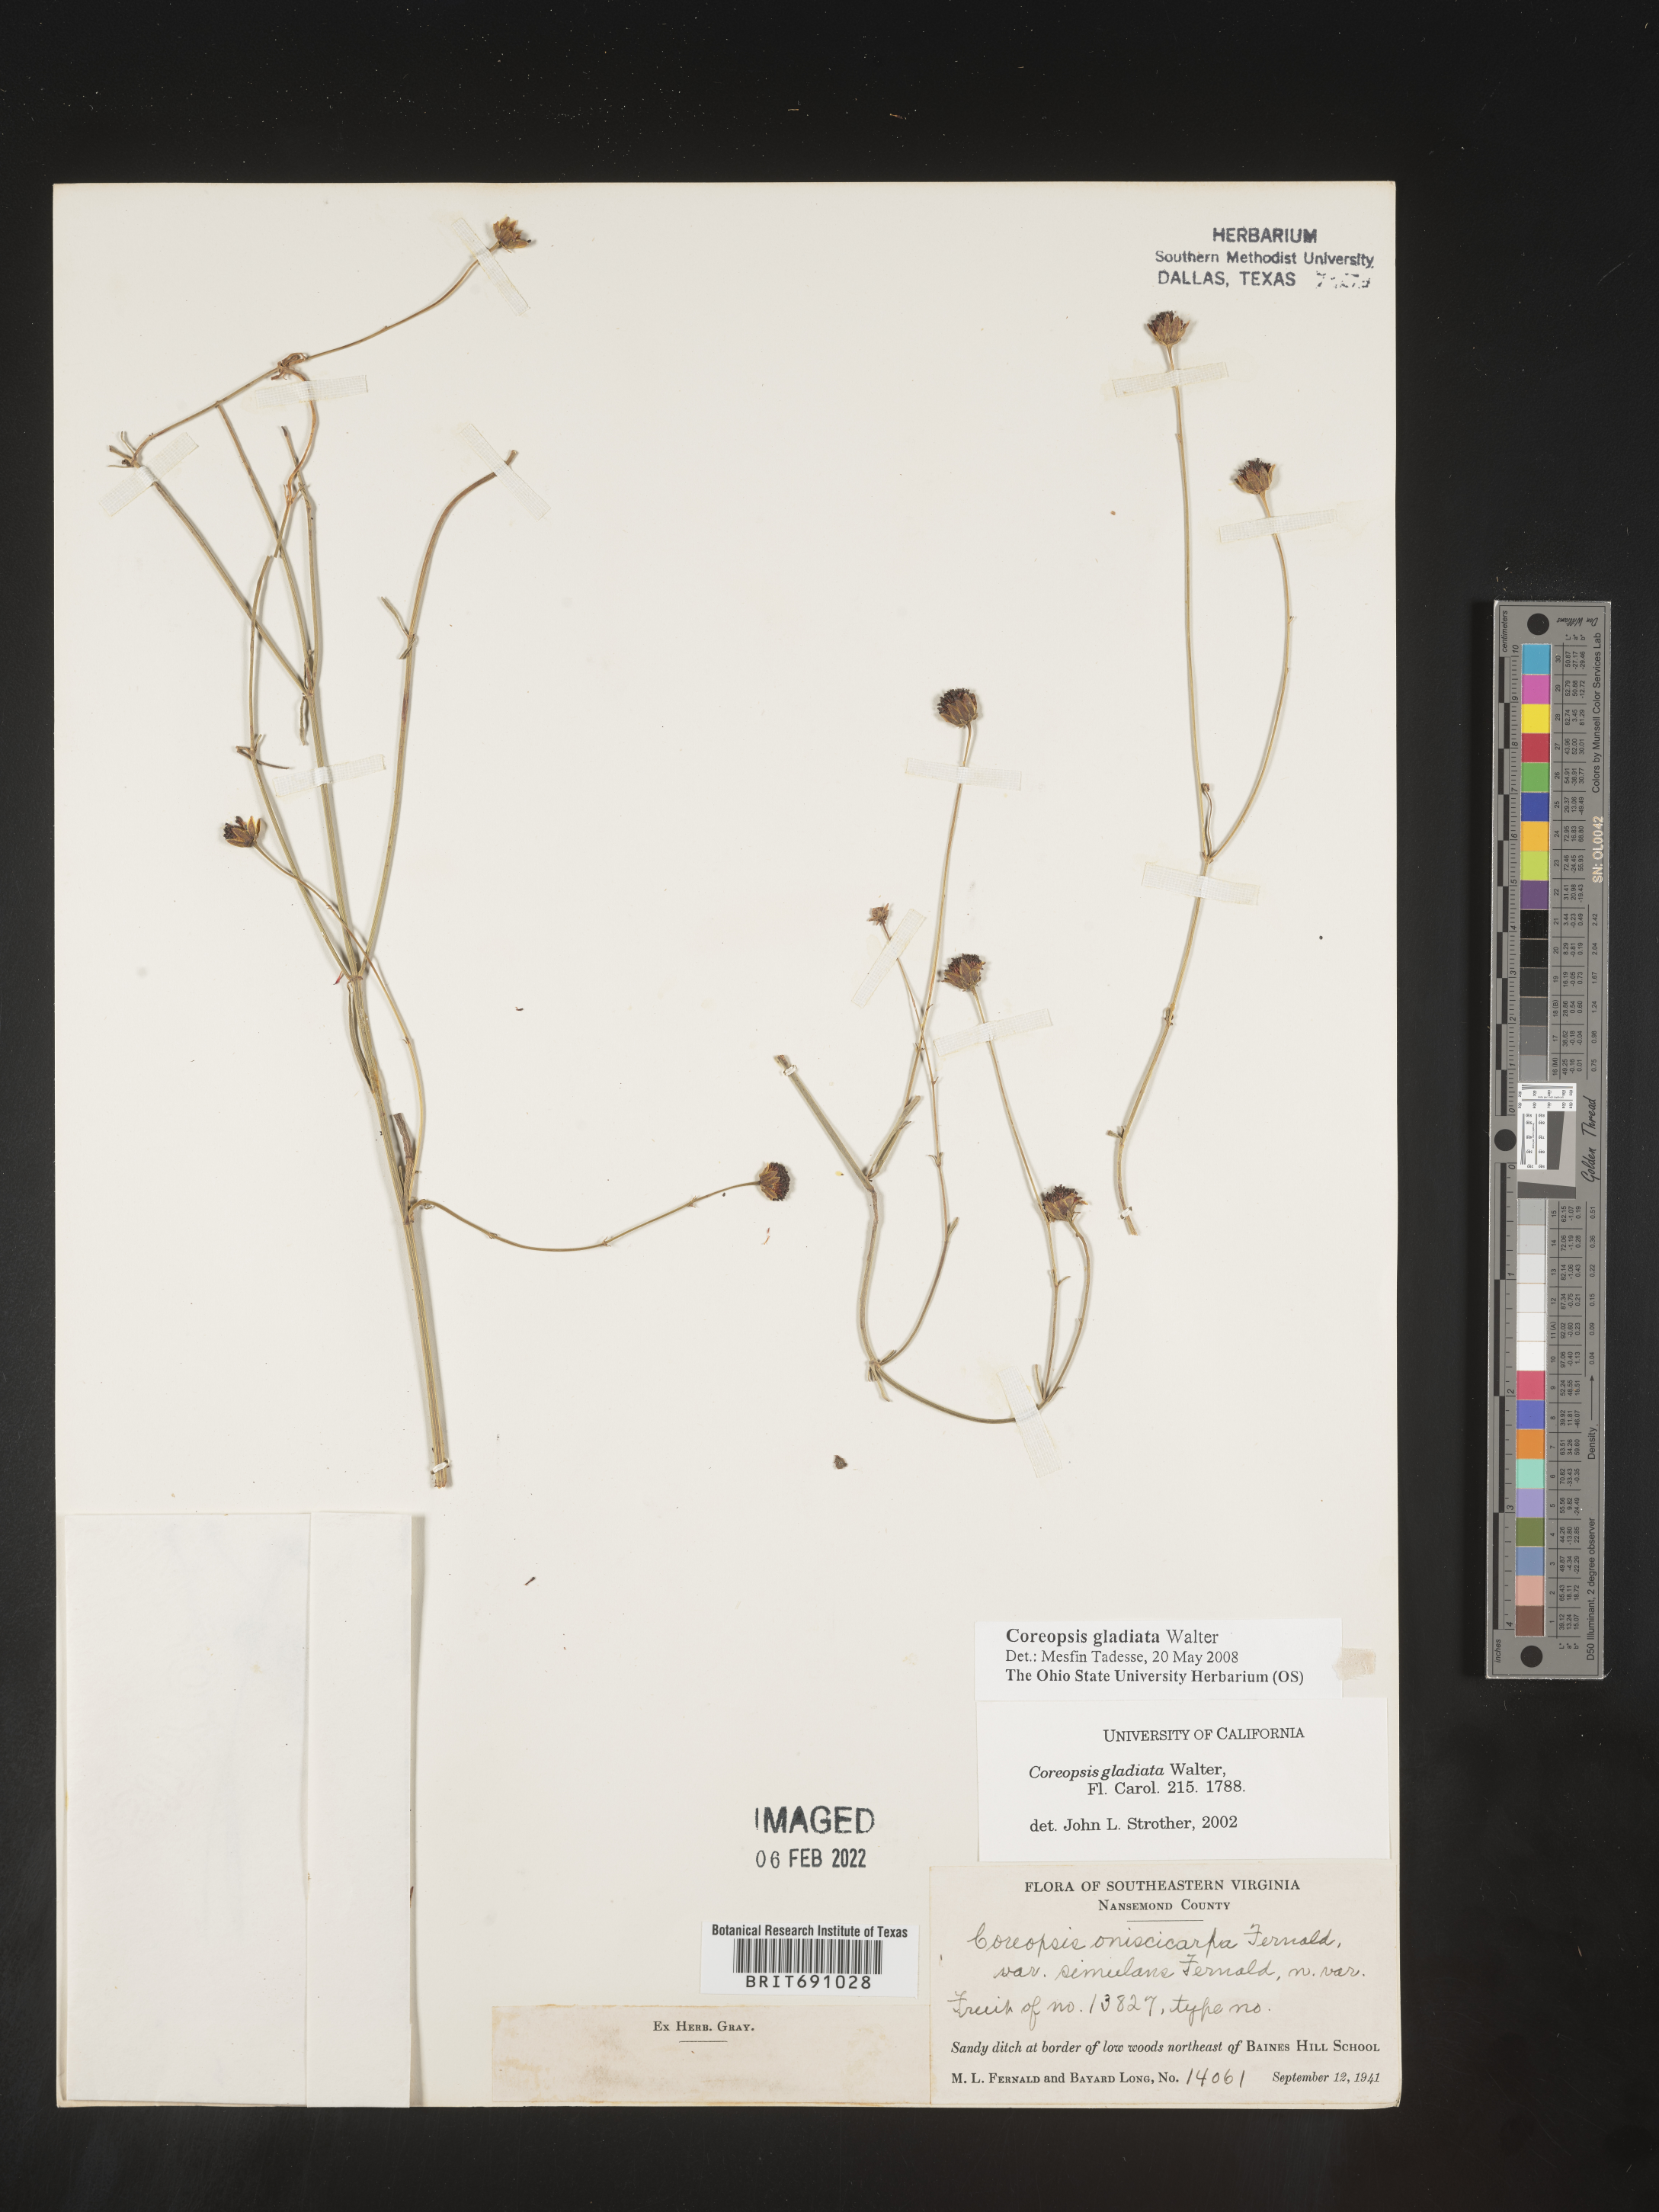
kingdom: Plantae
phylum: Tracheophyta
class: Magnoliopsida
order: Asterales
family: Asteraceae
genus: Coreopsis
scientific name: Coreopsis gladiata
